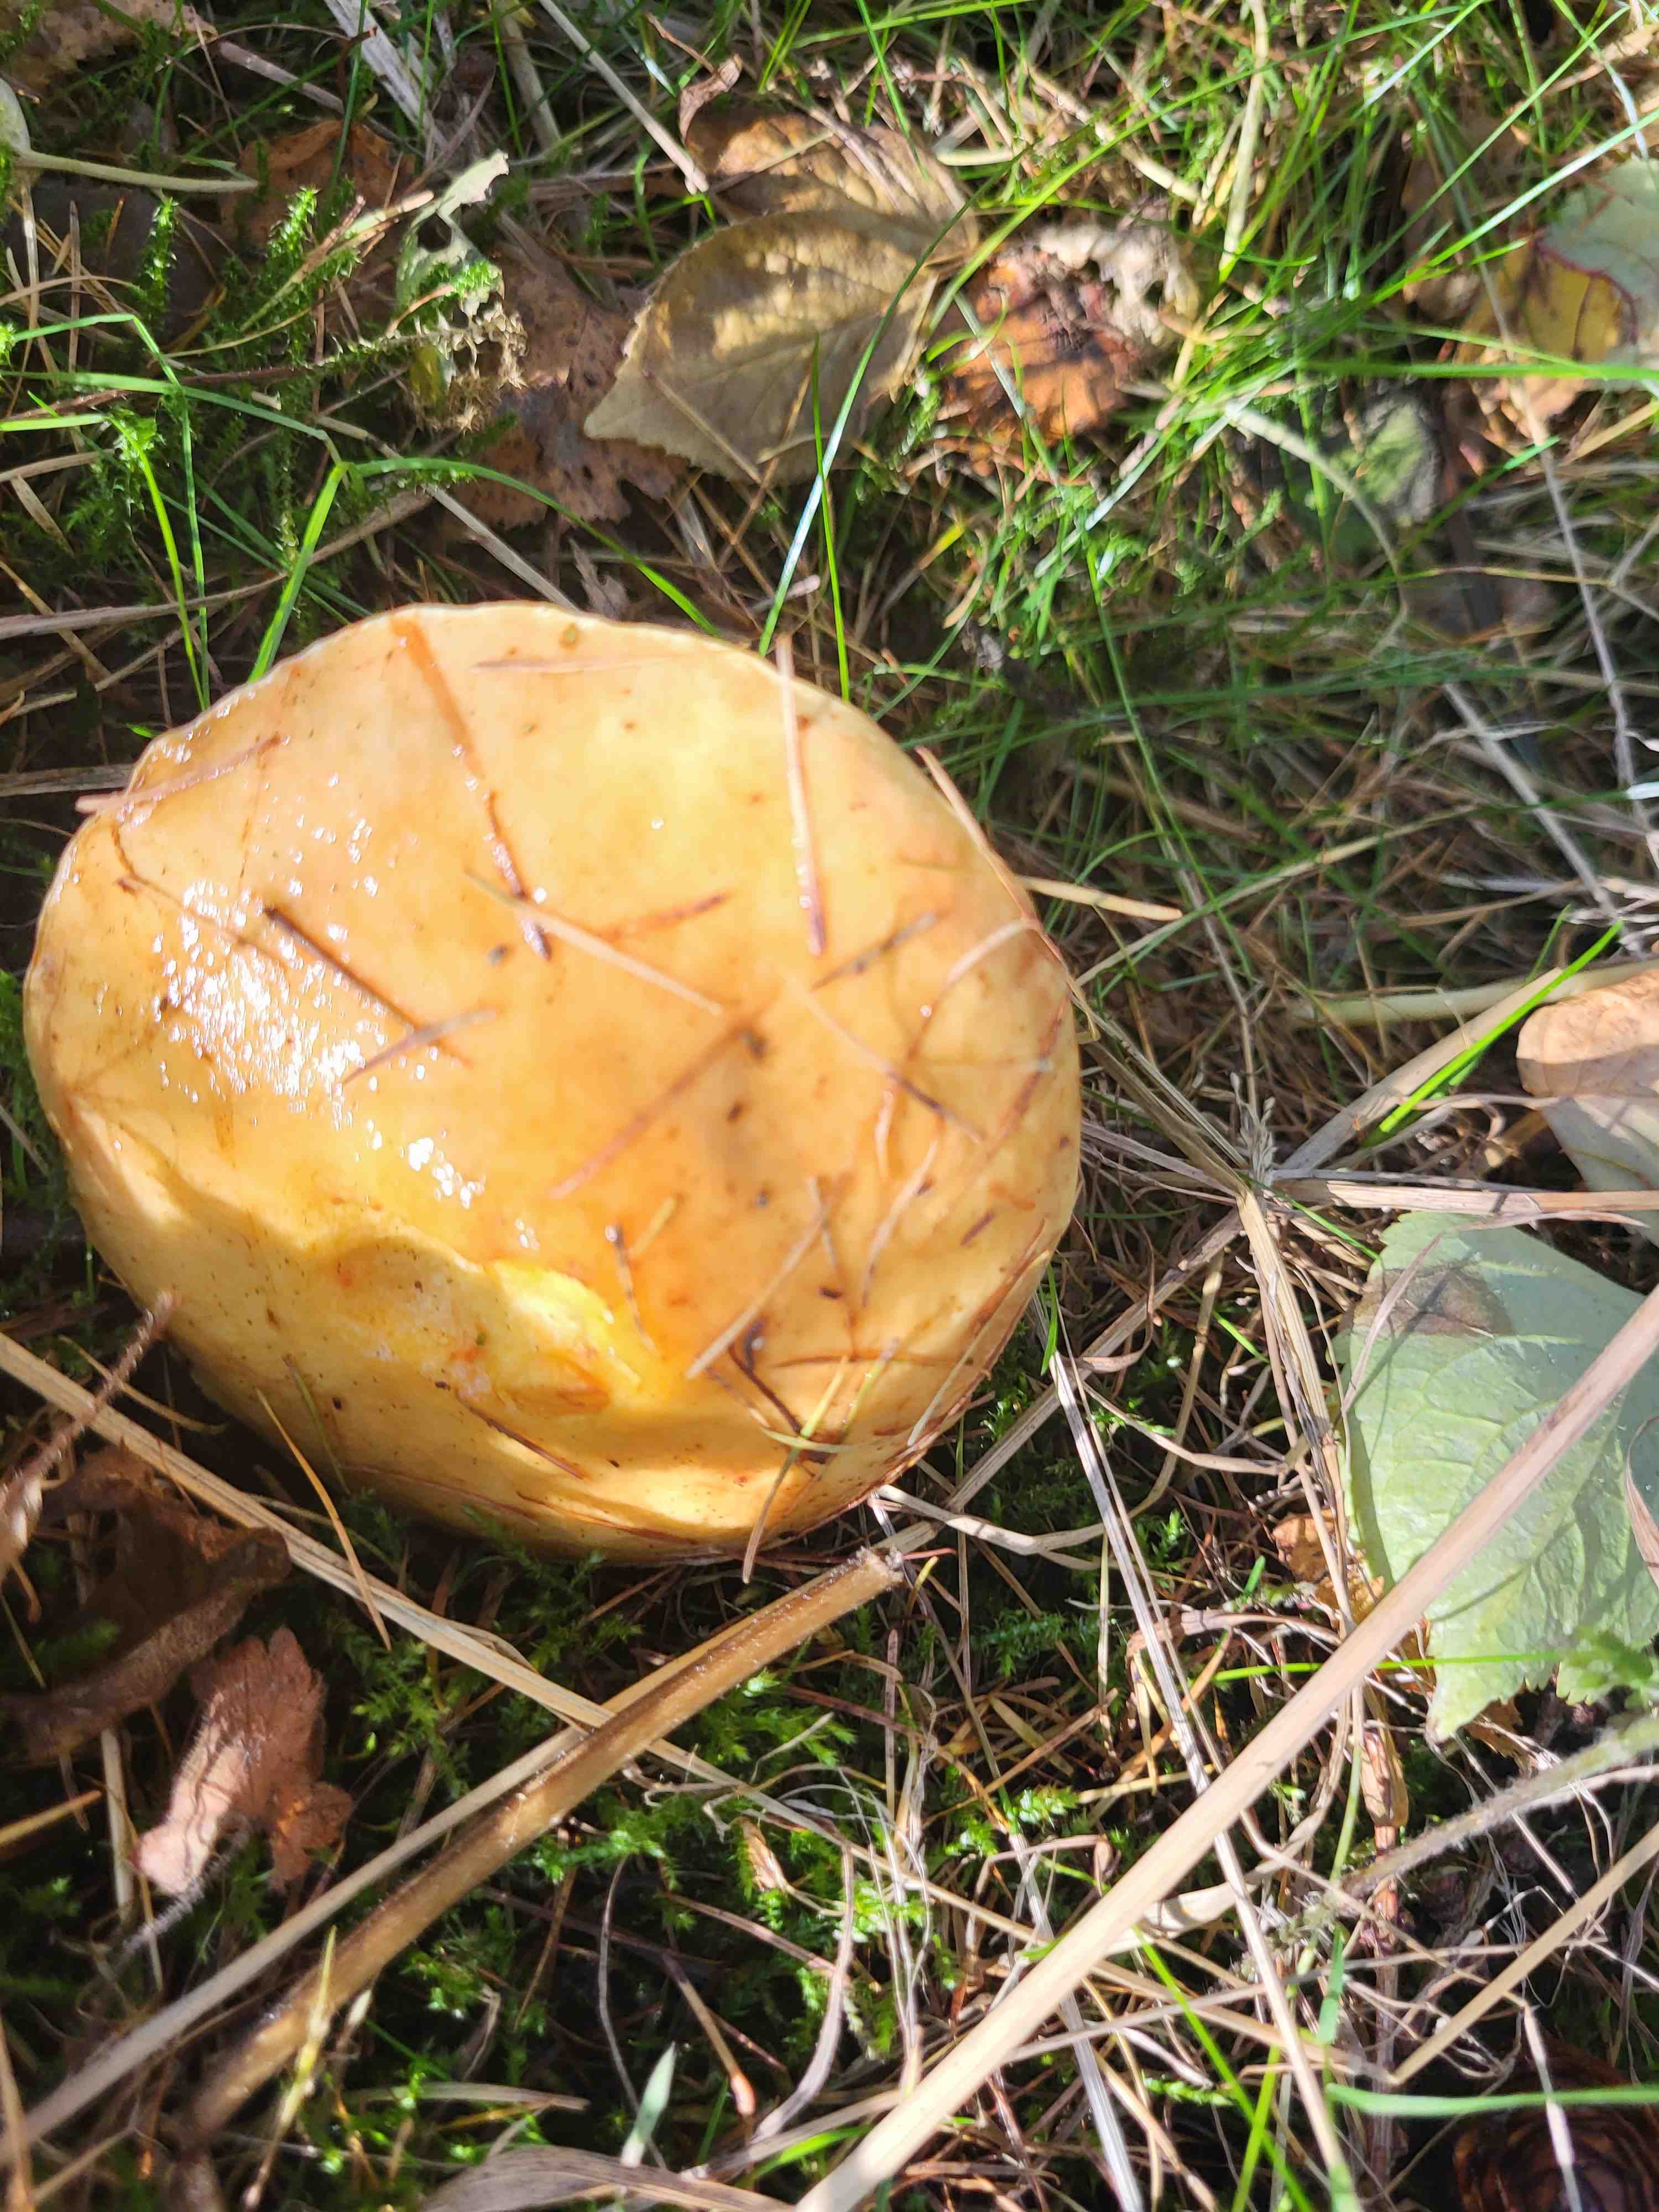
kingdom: Fungi
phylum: Basidiomycota
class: Agaricomycetes
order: Boletales
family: Suillaceae
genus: Suillus
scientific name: Suillus grevillei
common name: lærke-slimrørhat
